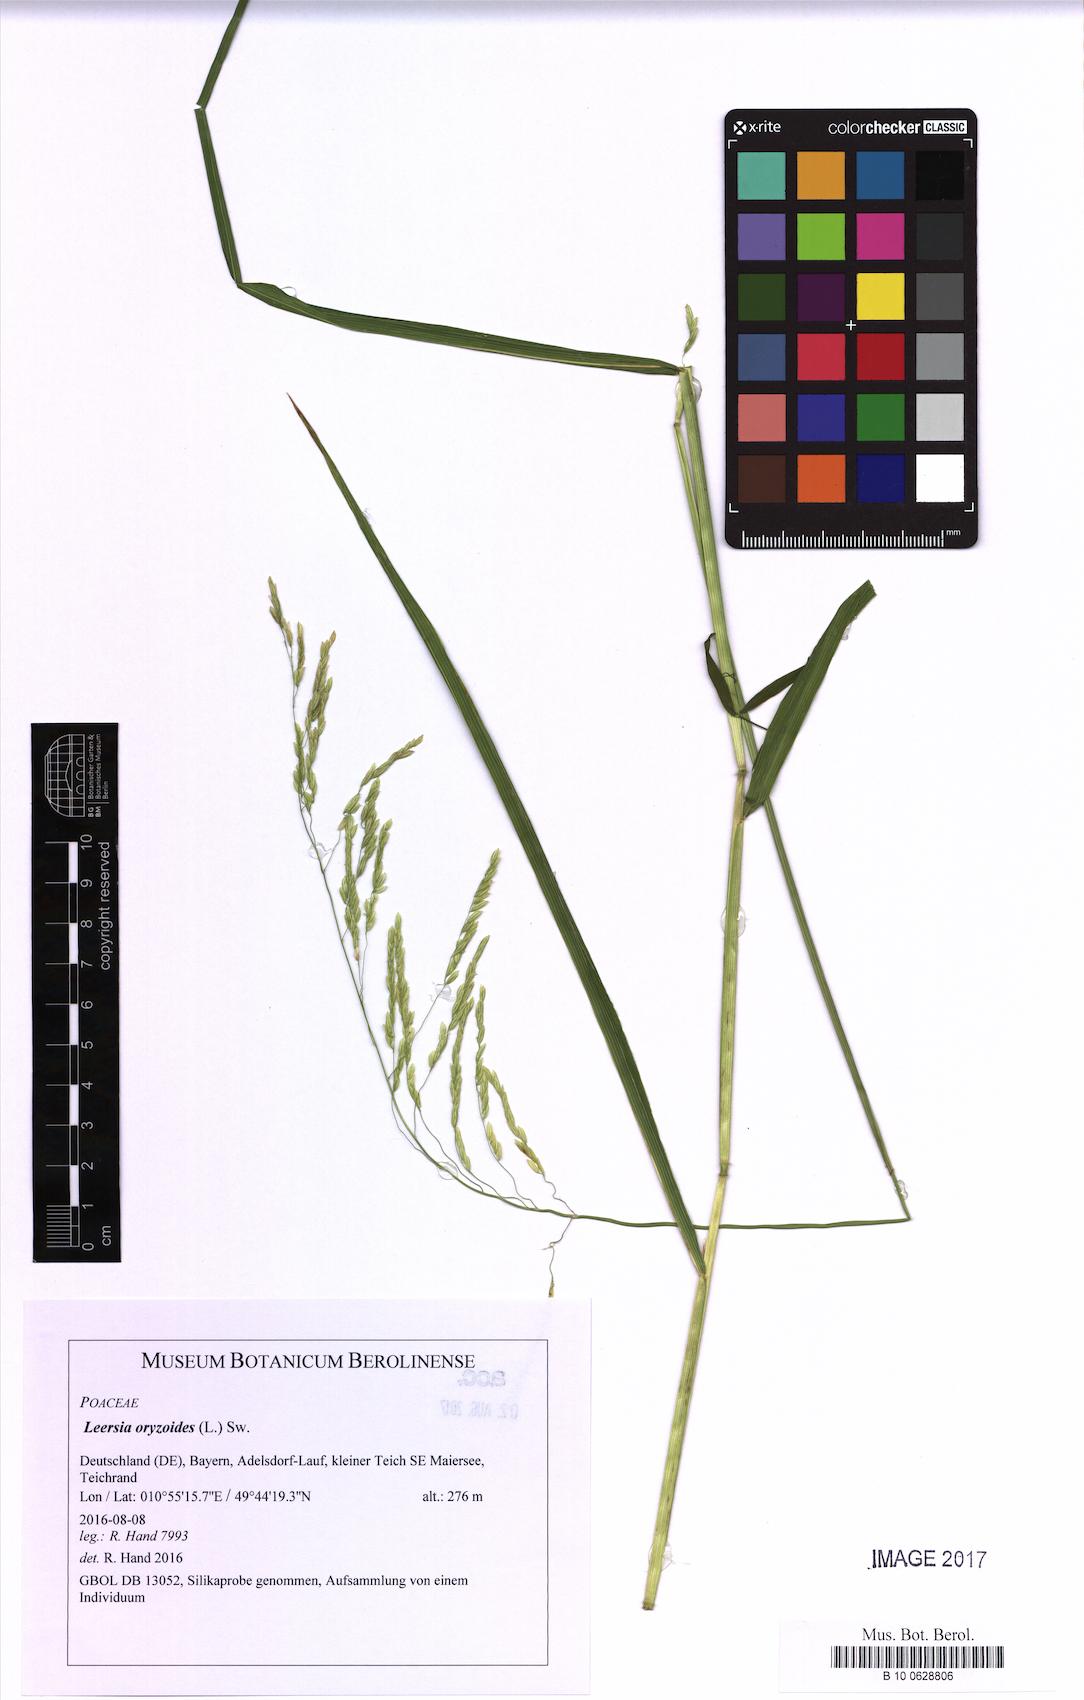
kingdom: Plantae
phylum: Tracheophyta
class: Liliopsida
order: Poales
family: Poaceae
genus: Leersia
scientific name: Leersia oryzoides
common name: Cut-grass
